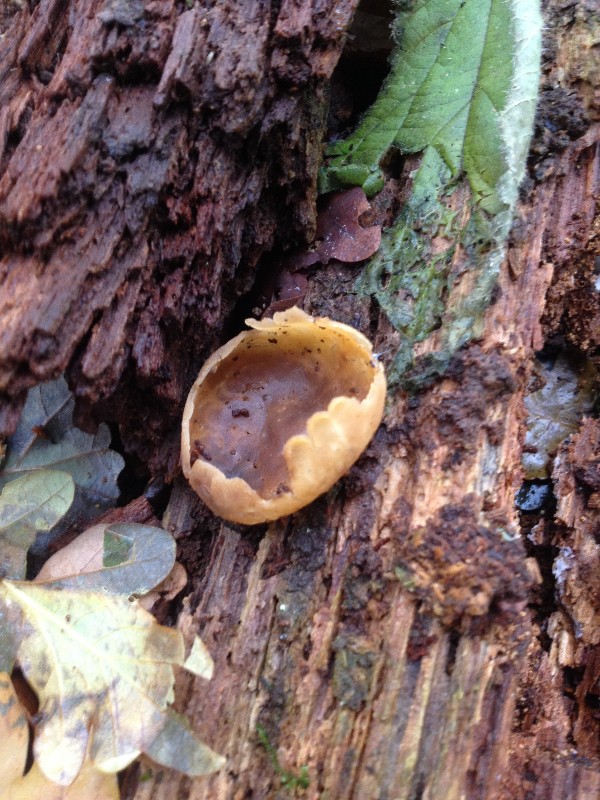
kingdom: Fungi
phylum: Ascomycota
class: Pezizomycetes
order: Pezizales
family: Pezizaceae
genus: Peziza
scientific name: Peziza varia
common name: Ved-bægersvamp
